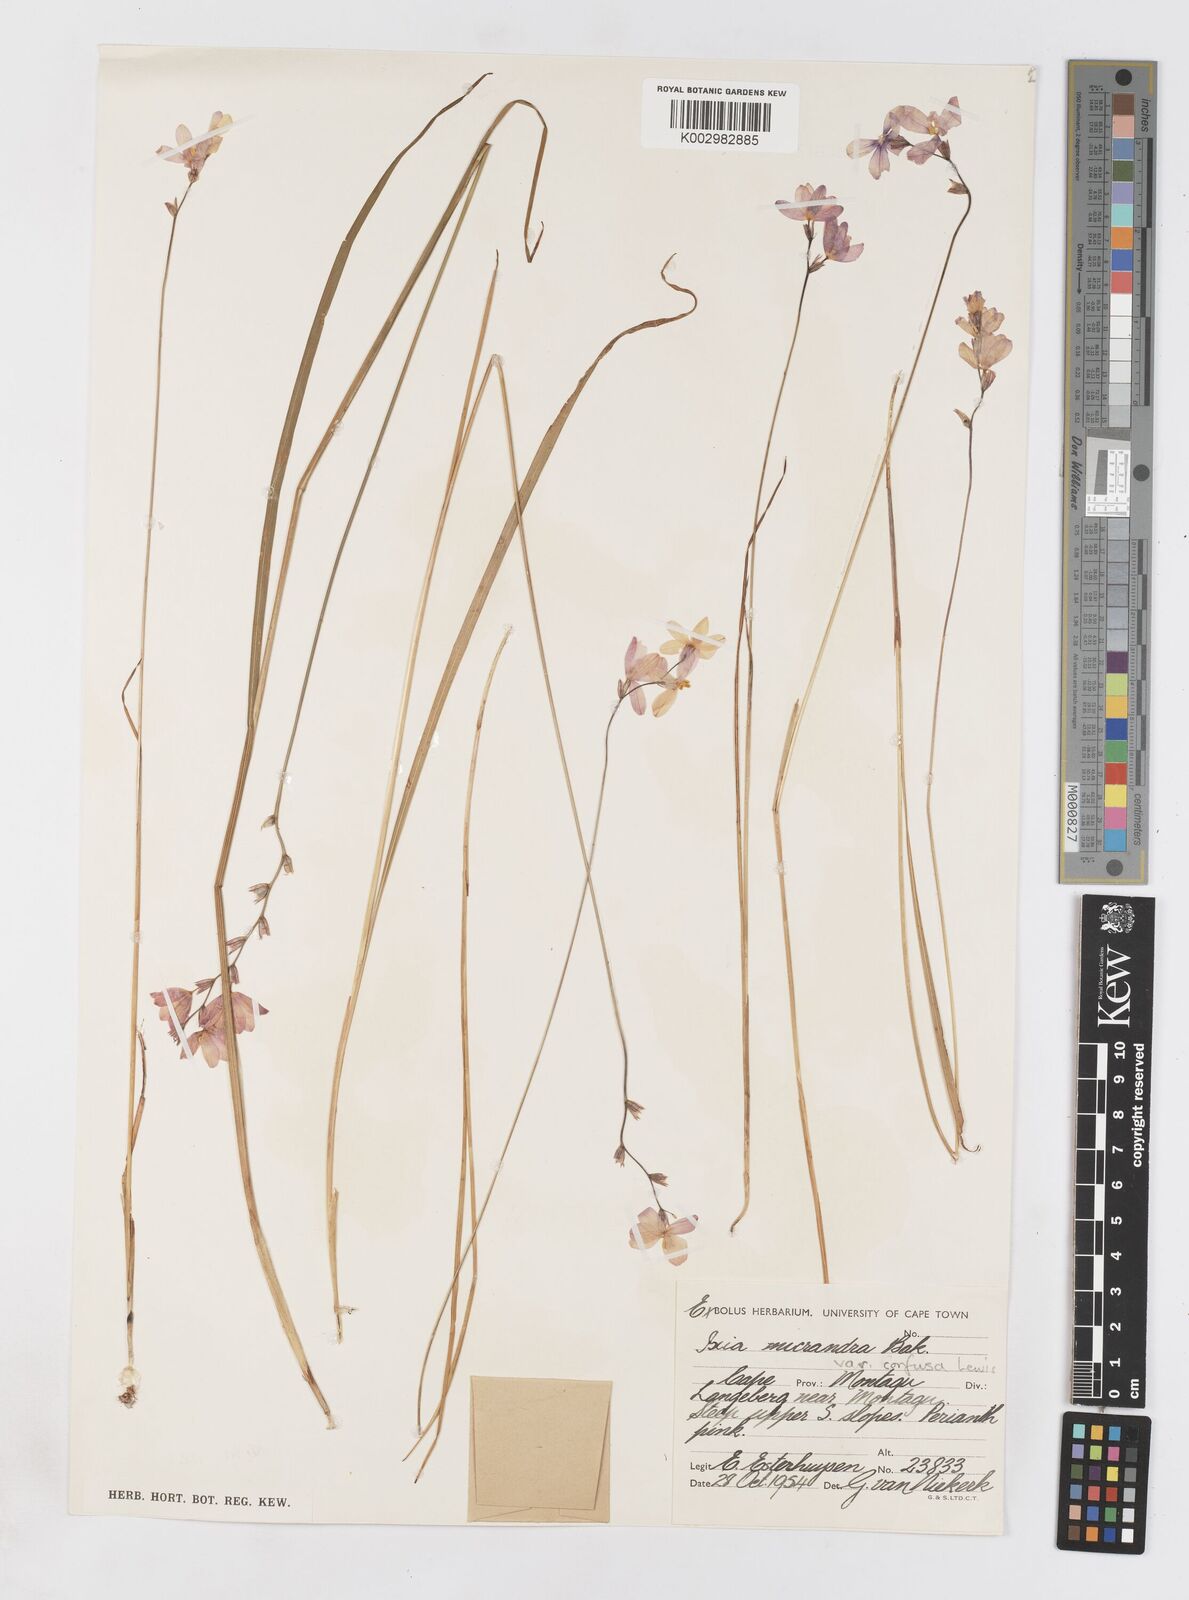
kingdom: Plantae
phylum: Tracheophyta
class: Liliopsida
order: Asparagales
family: Iridaceae
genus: Ixia
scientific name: Ixia confusa
